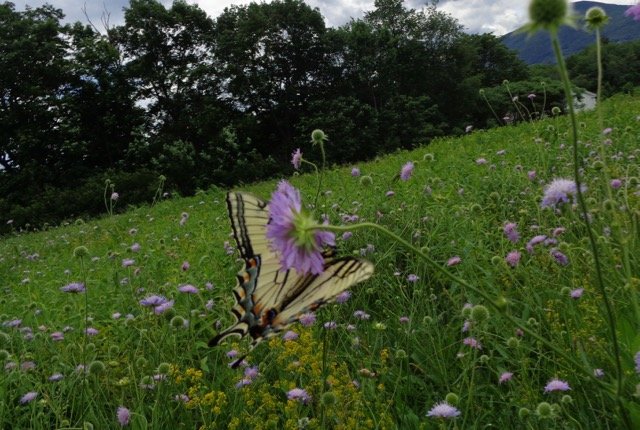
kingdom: Animalia
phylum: Arthropoda
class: Insecta
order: Lepidoptera
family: Papilionidae
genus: Pterourus
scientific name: Pterourus canadensis
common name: Canadian Tiger Swallowtail
